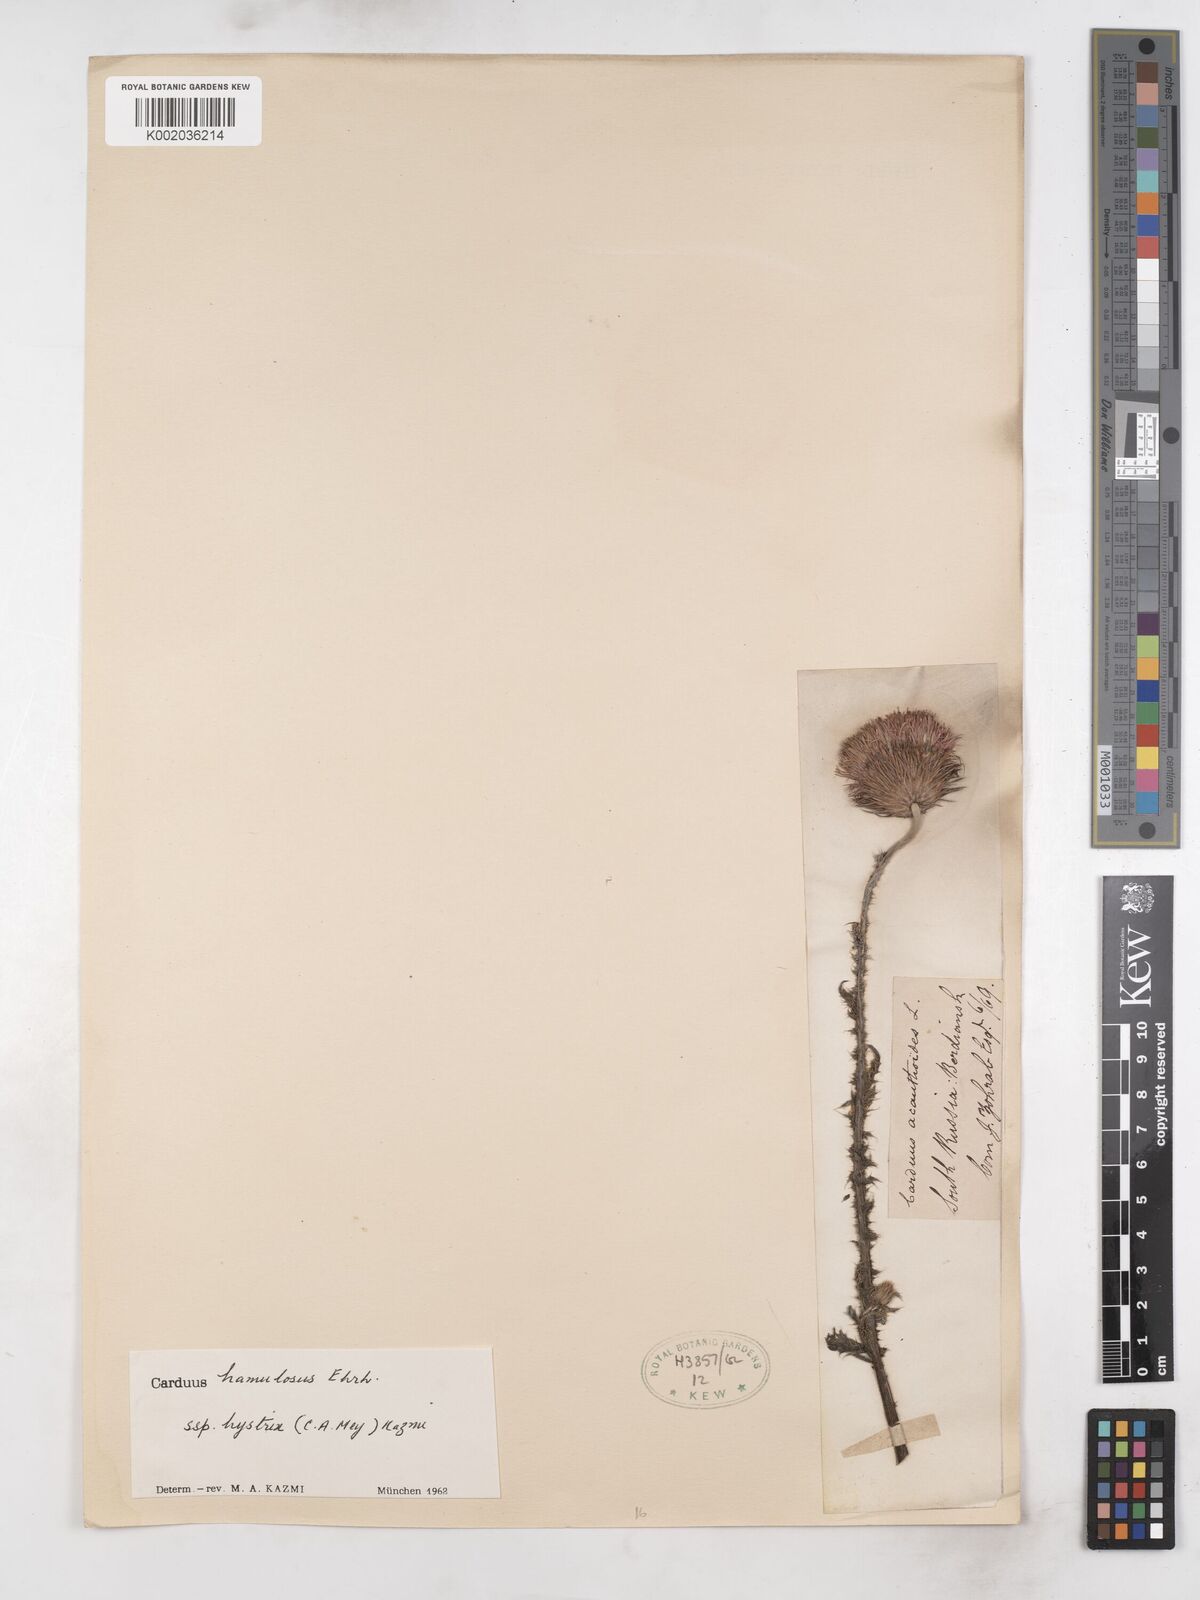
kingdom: Plantae
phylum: Tracheophyta
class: Magnoliopsida
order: Asterales
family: Asteraceae
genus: Carduus
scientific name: Carduus hamulosus
